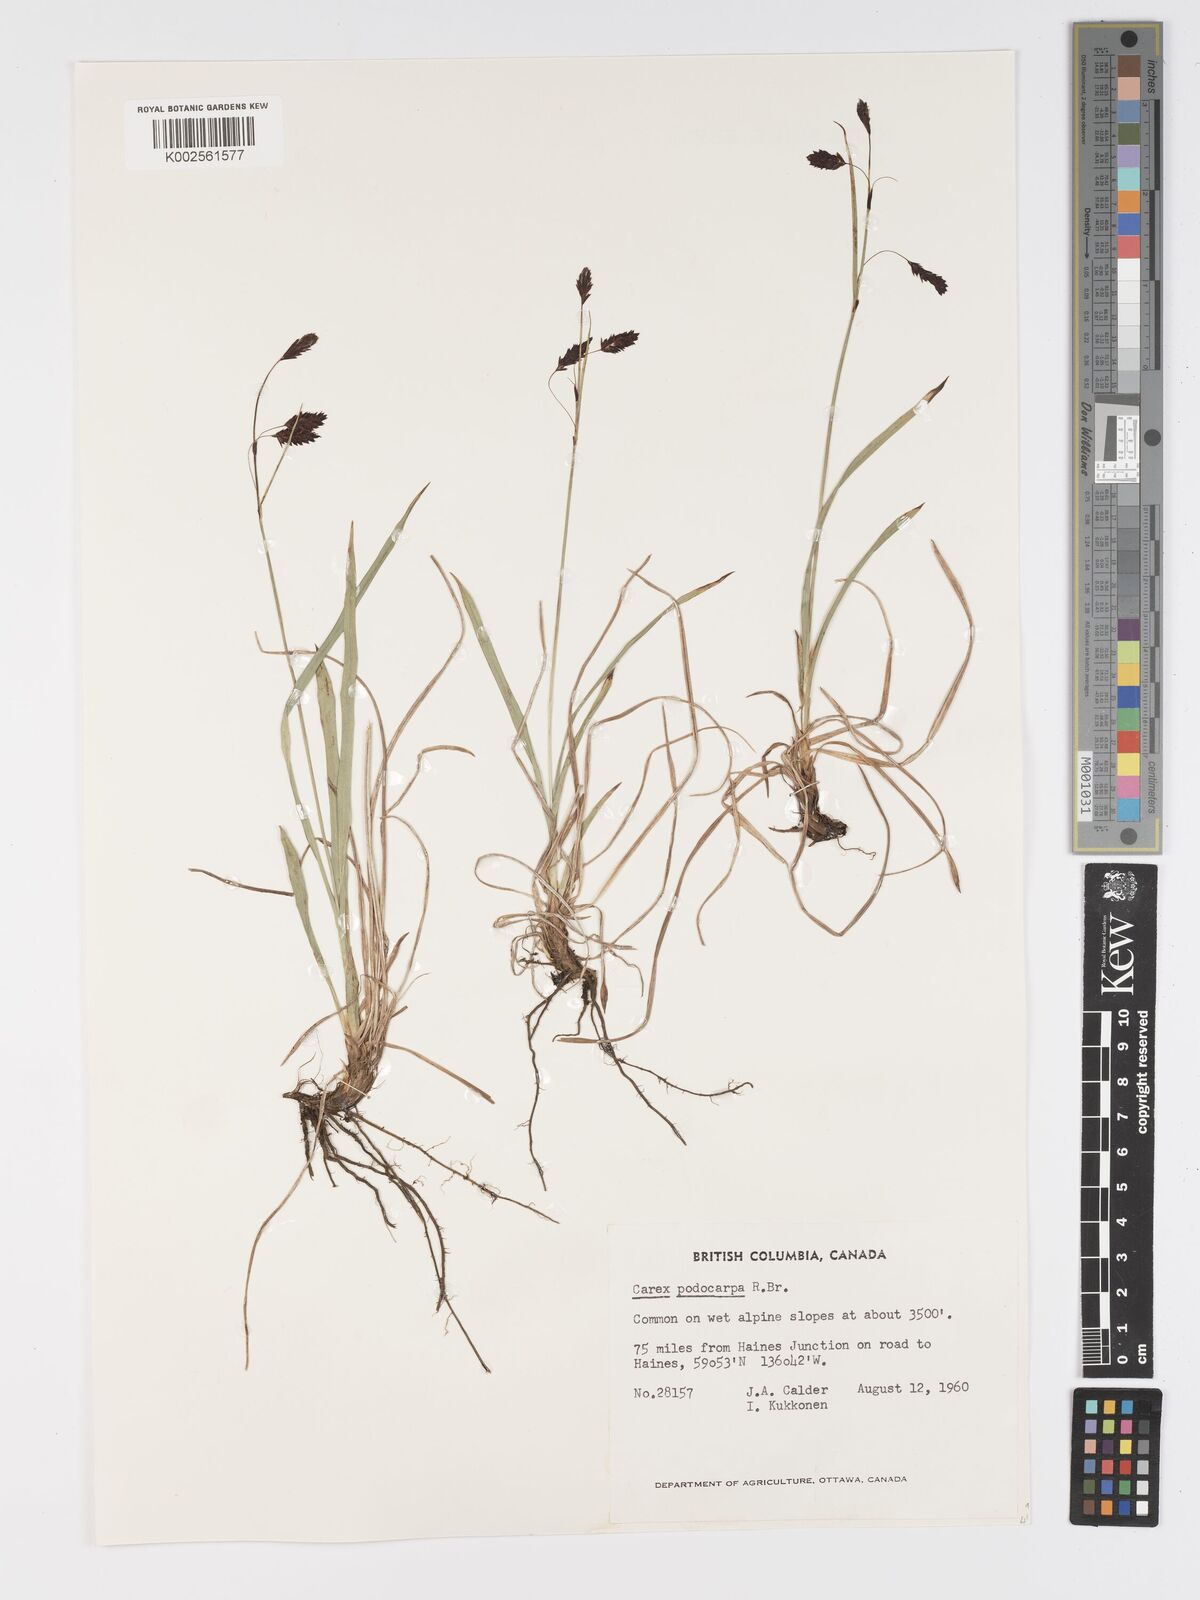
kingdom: Plantae
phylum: Tracheophyta
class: Liliopsida
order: Poales
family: Cyperaceae
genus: Carex
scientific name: Carex podocarpa
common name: Alpine sedge
